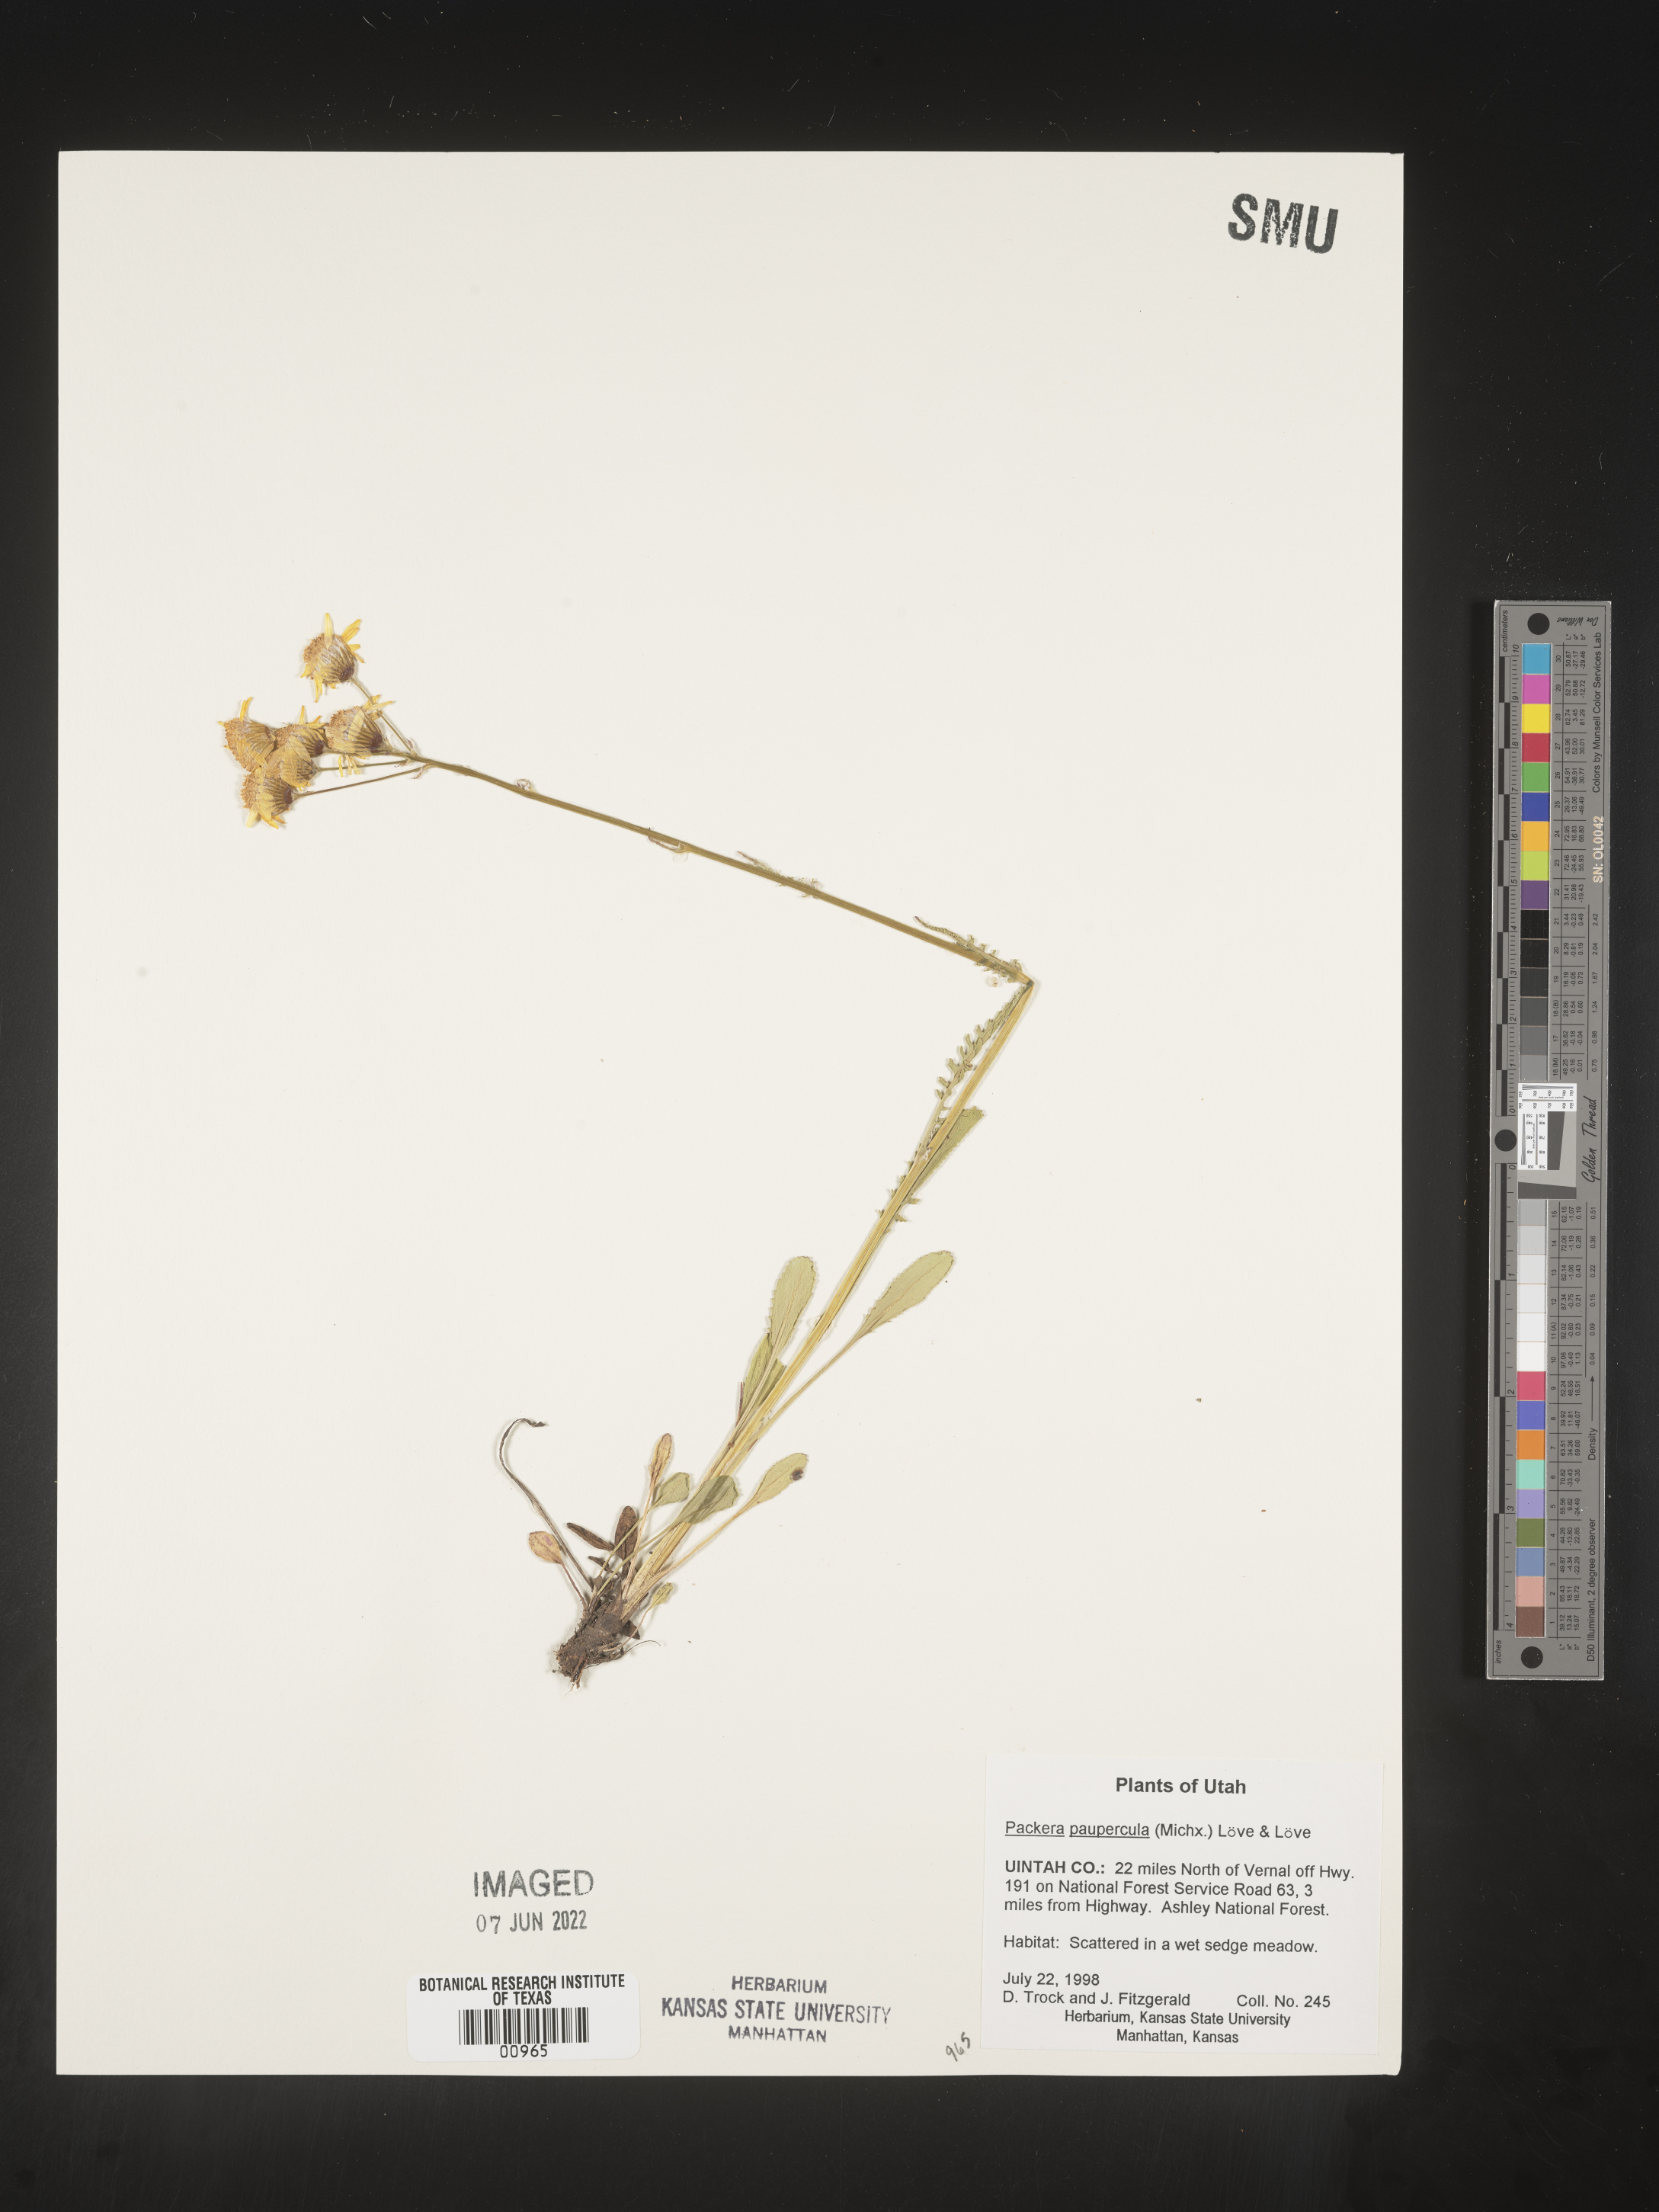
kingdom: Plantae
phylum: Tracheophyta
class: Magnoliopsida
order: Asterales
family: Asteraceae
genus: Packera
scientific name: Packera paupercula
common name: Balsam groundsel
